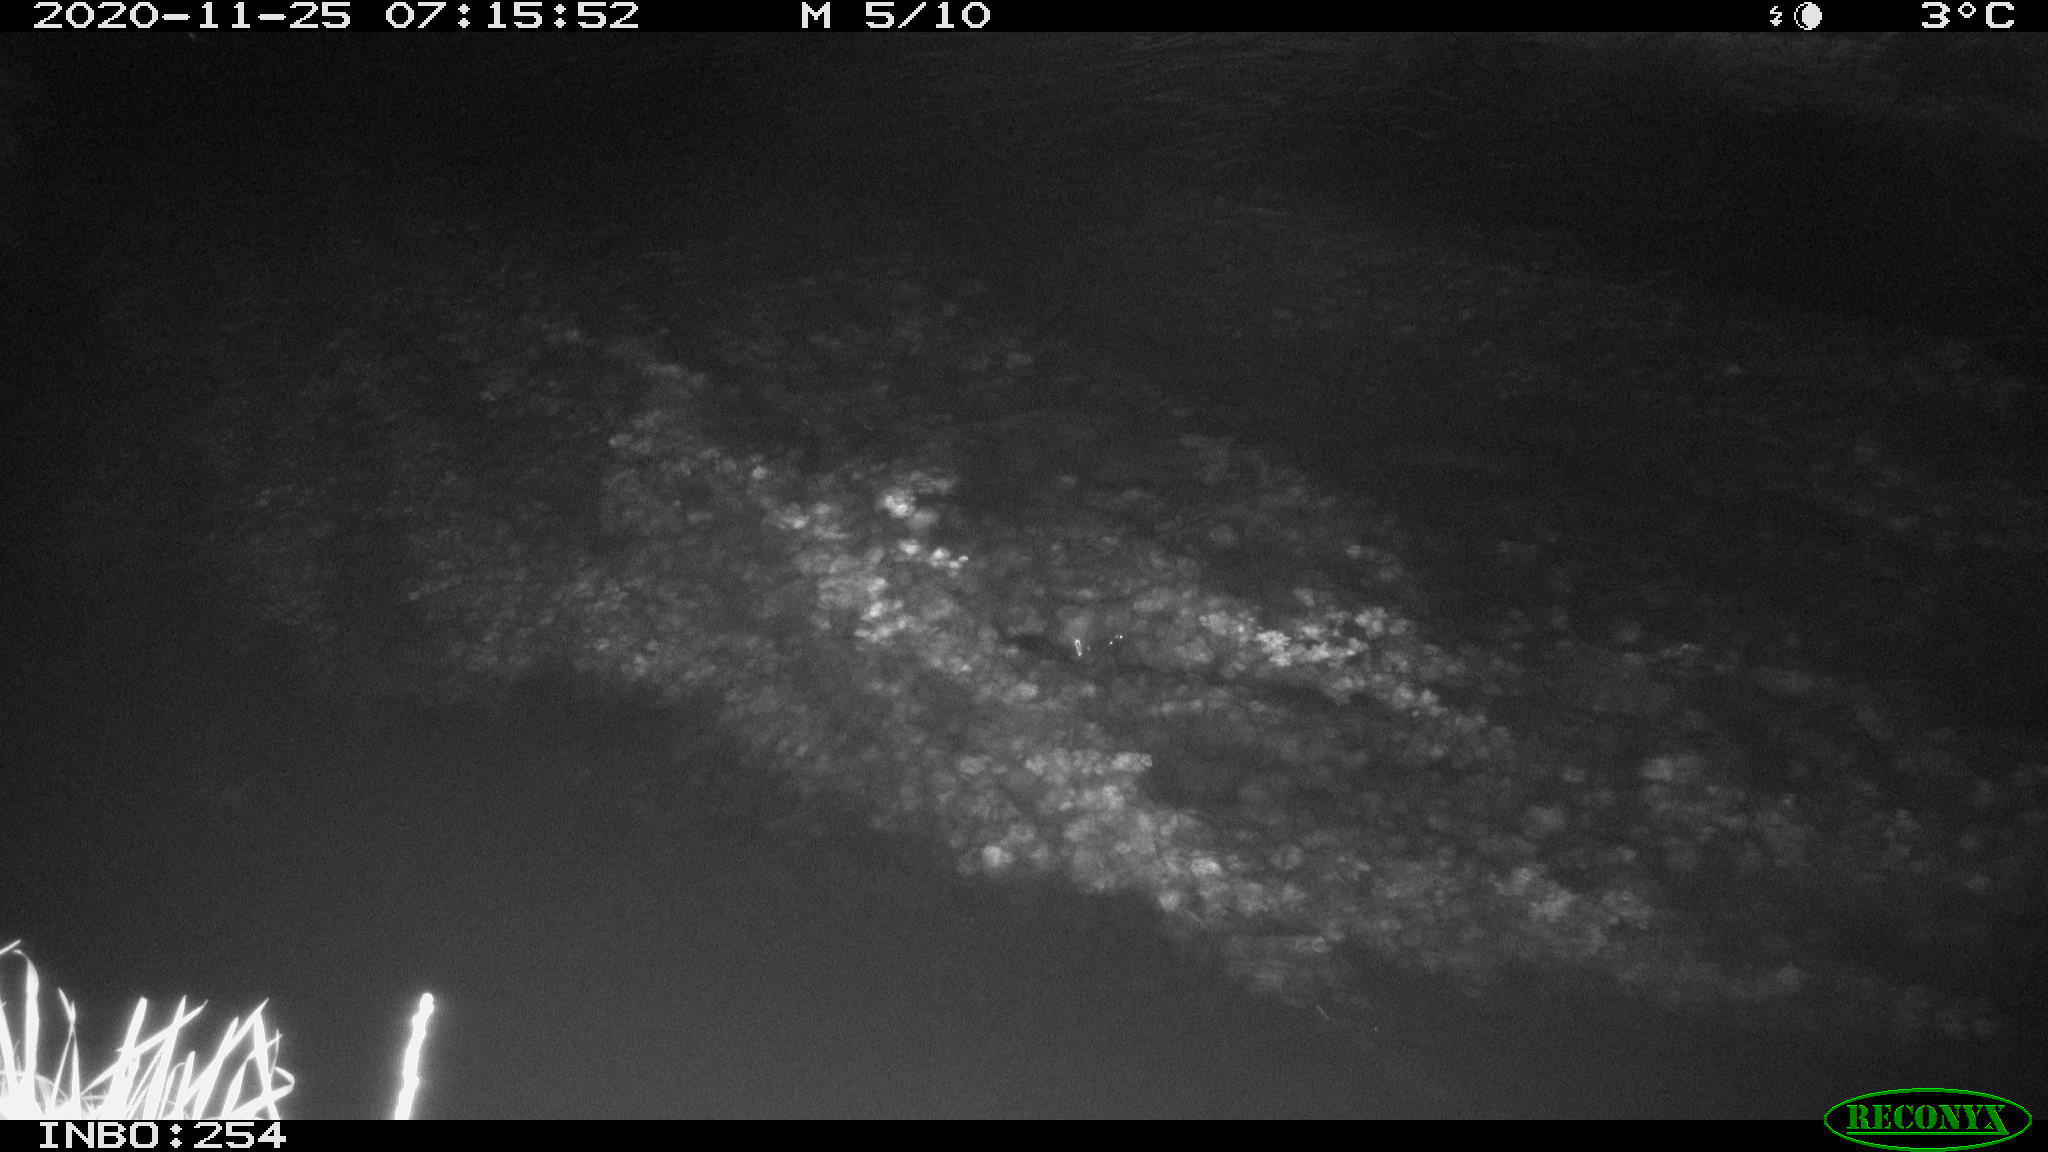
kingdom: Animalia
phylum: Chordata
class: Aves
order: Anseriformes
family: Anatidae
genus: Anas
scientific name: Anas platyrhynchos
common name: Mallard
